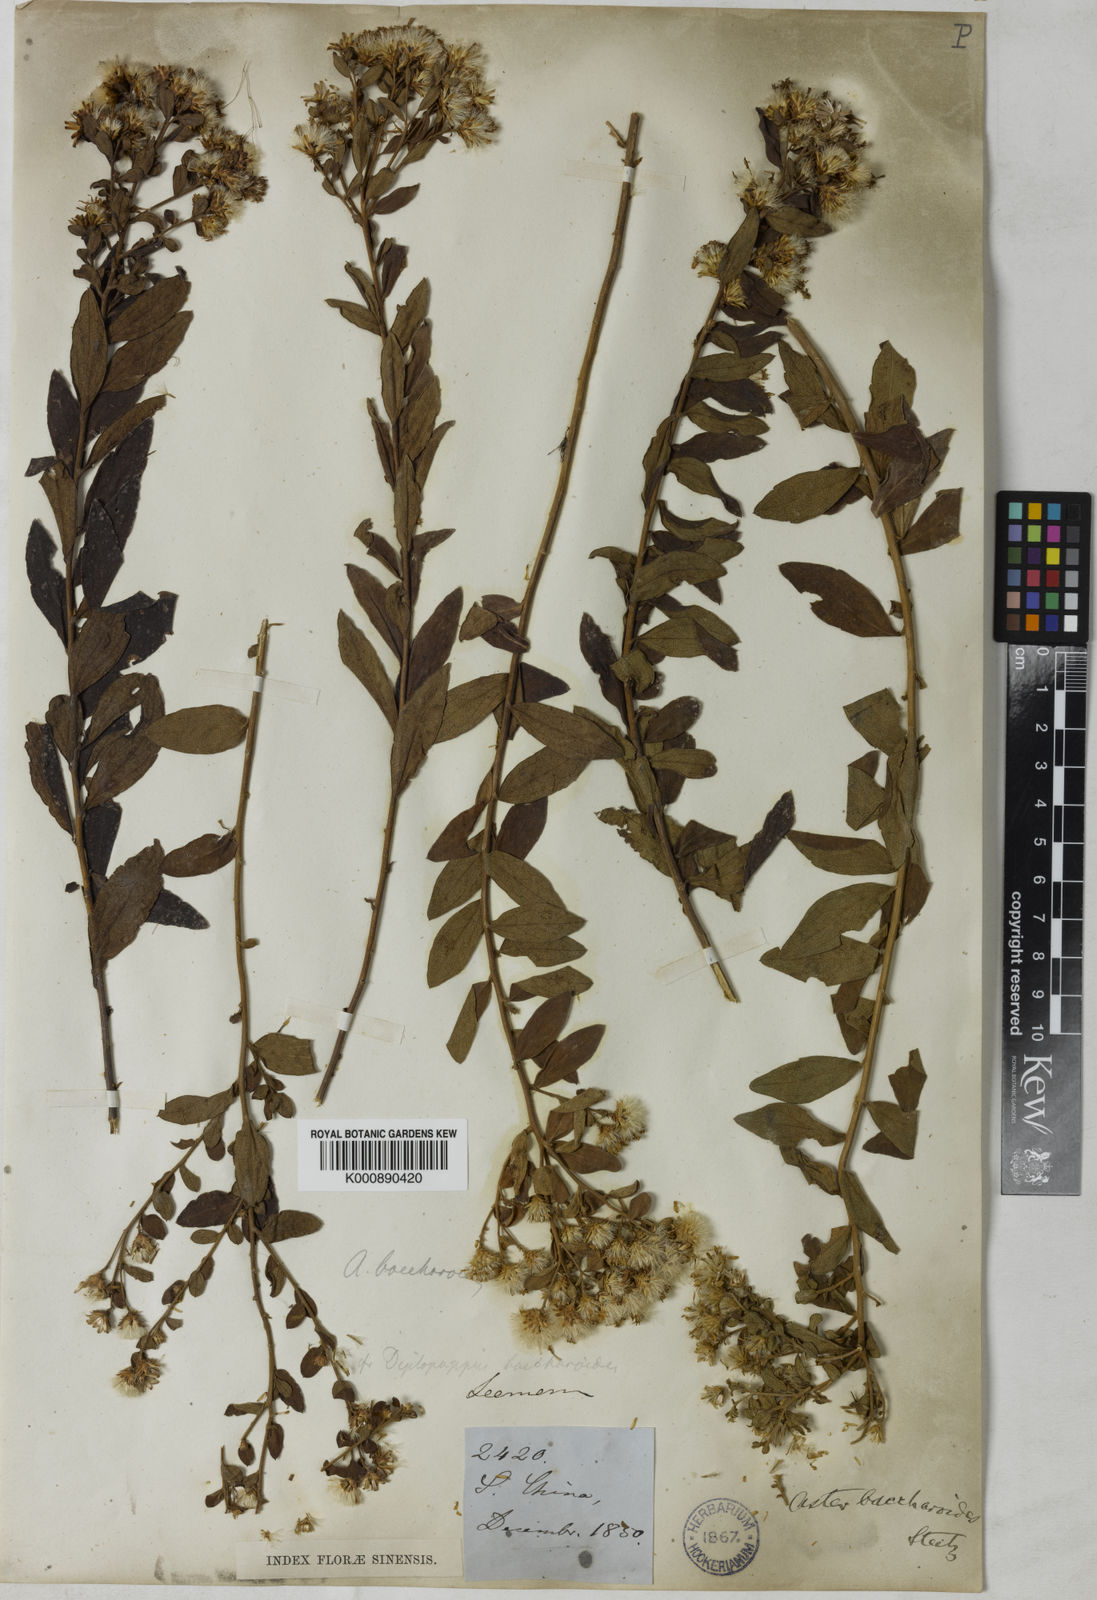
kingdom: Plantae
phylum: Tracheophyta
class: Magnoliopsida
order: Asterales
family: Asteraceae
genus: Aster
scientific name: Aster baccharoides
